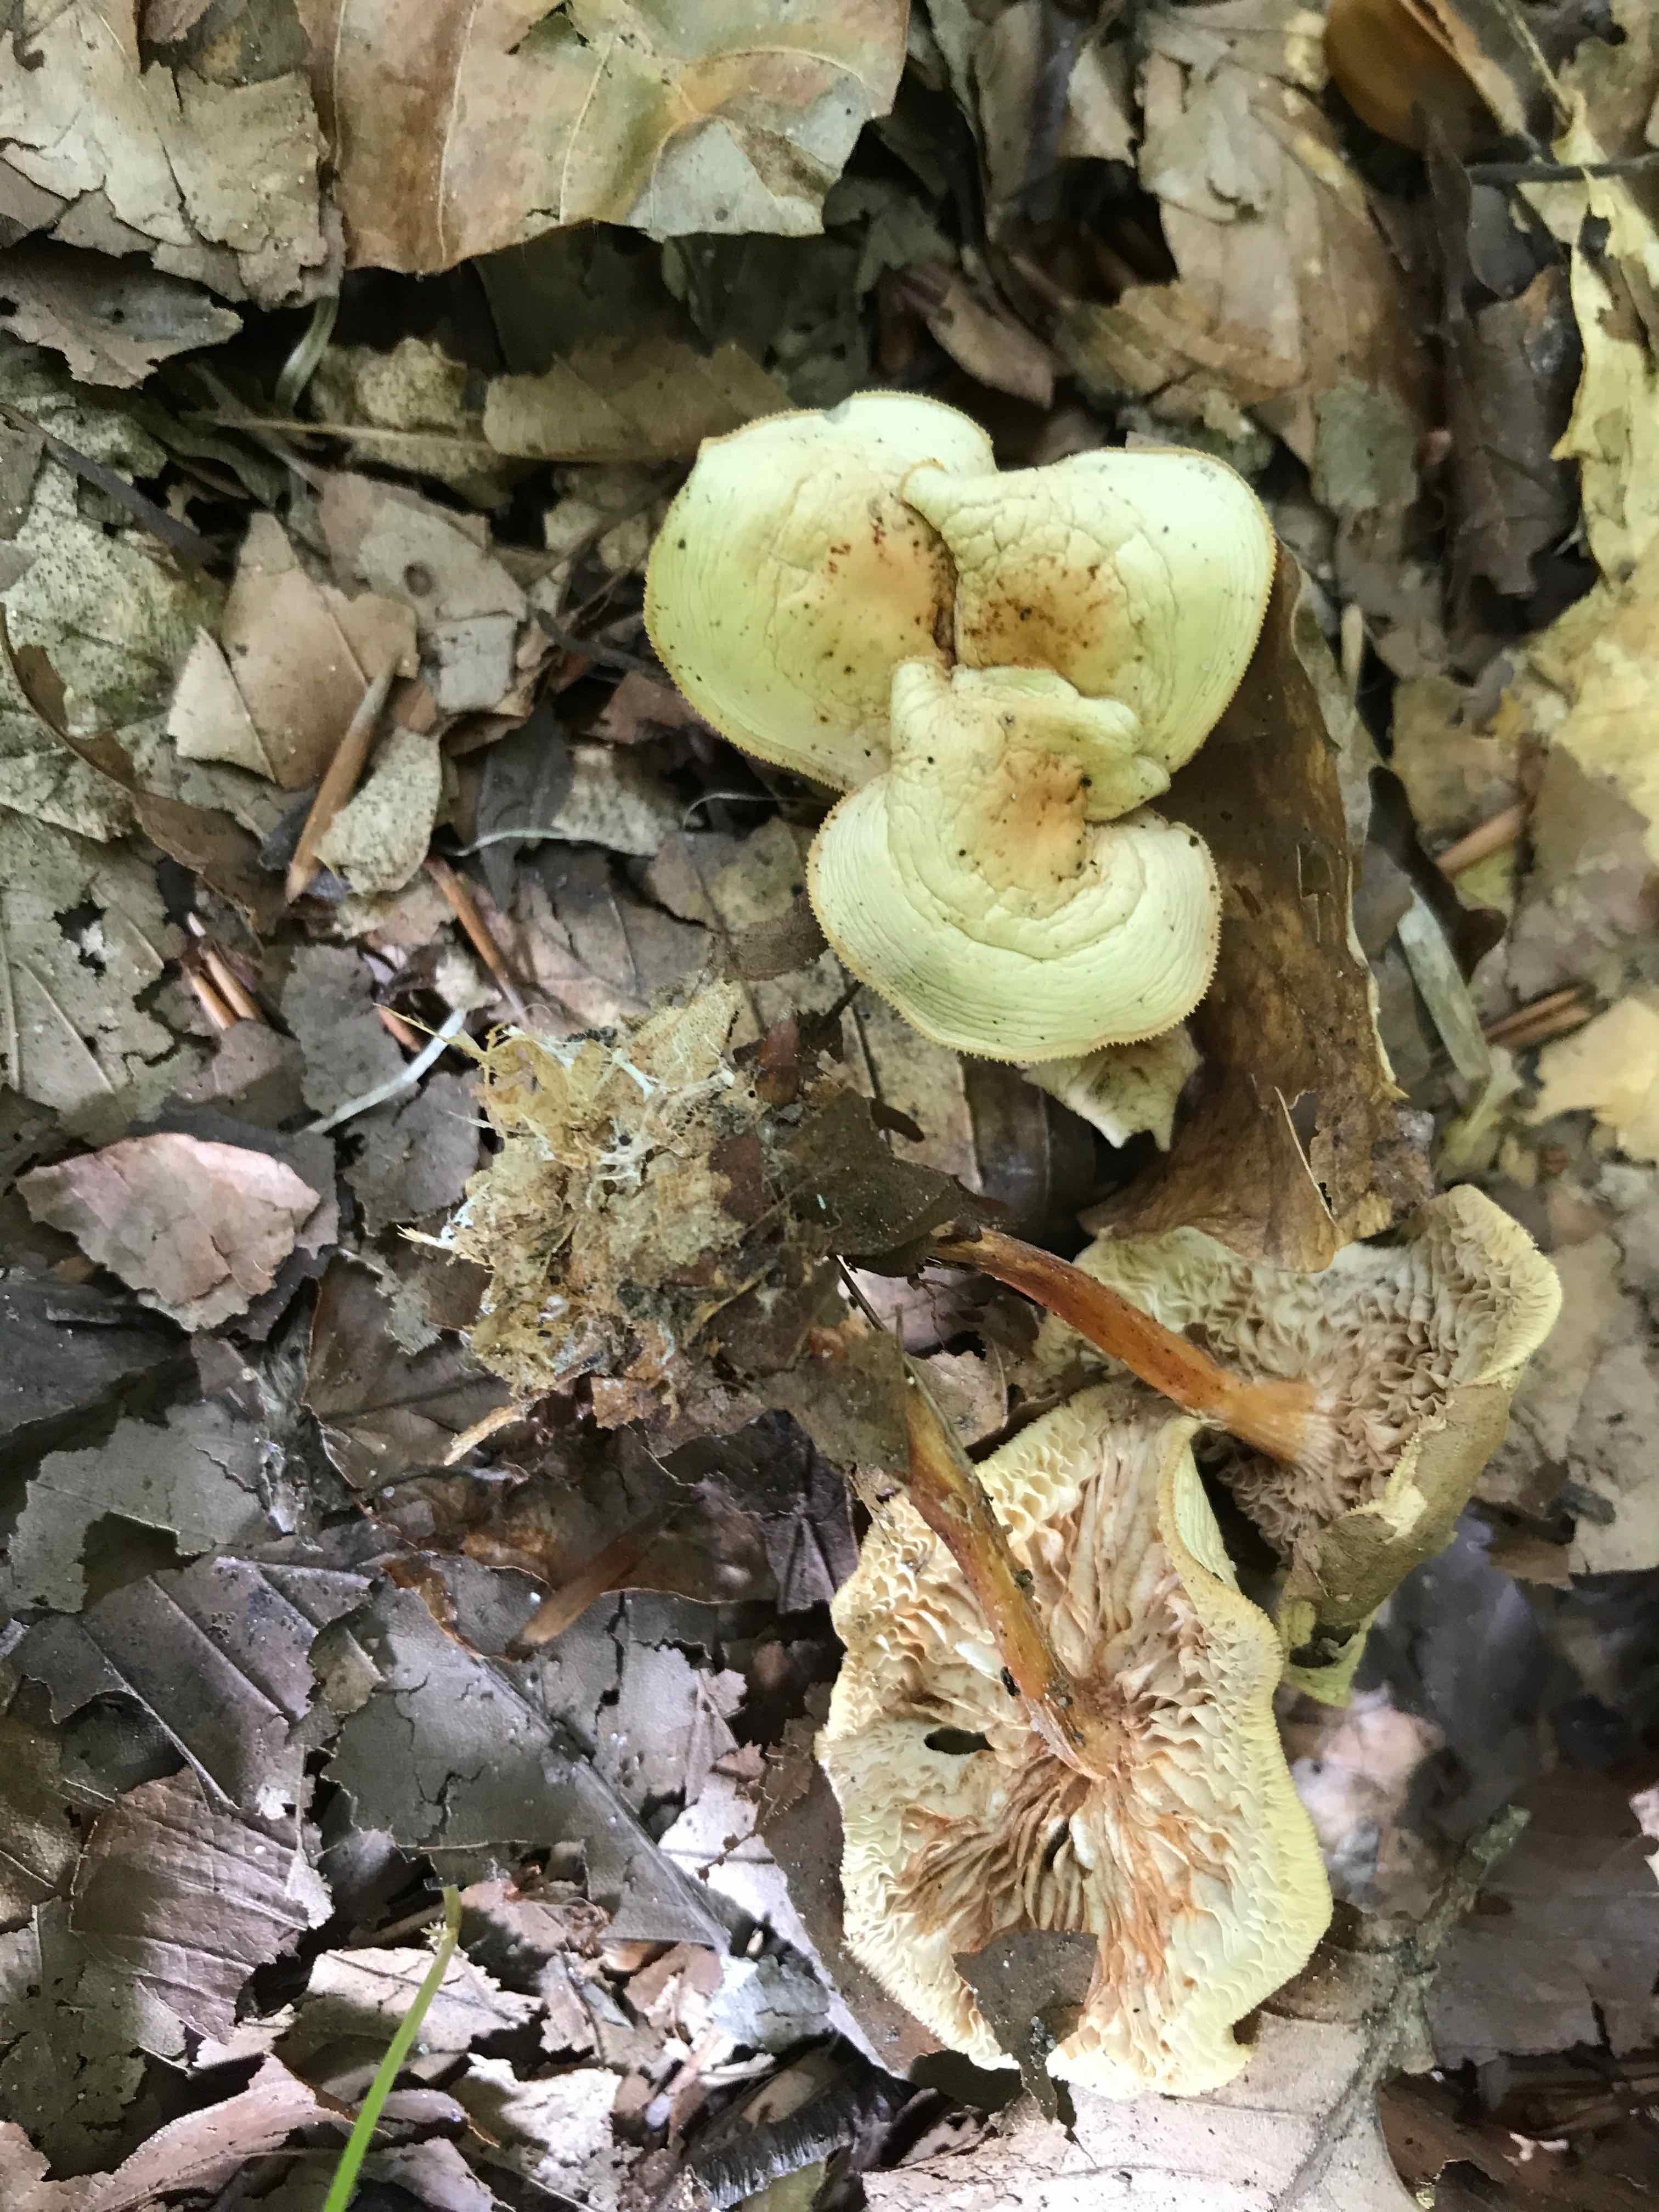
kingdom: Fungi
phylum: Basidiomycota
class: Agaricomycetes
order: Agaricales
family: Omphalotaceae
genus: Gymnopus
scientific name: Gymnopus dryophilus
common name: løv-fladhat
